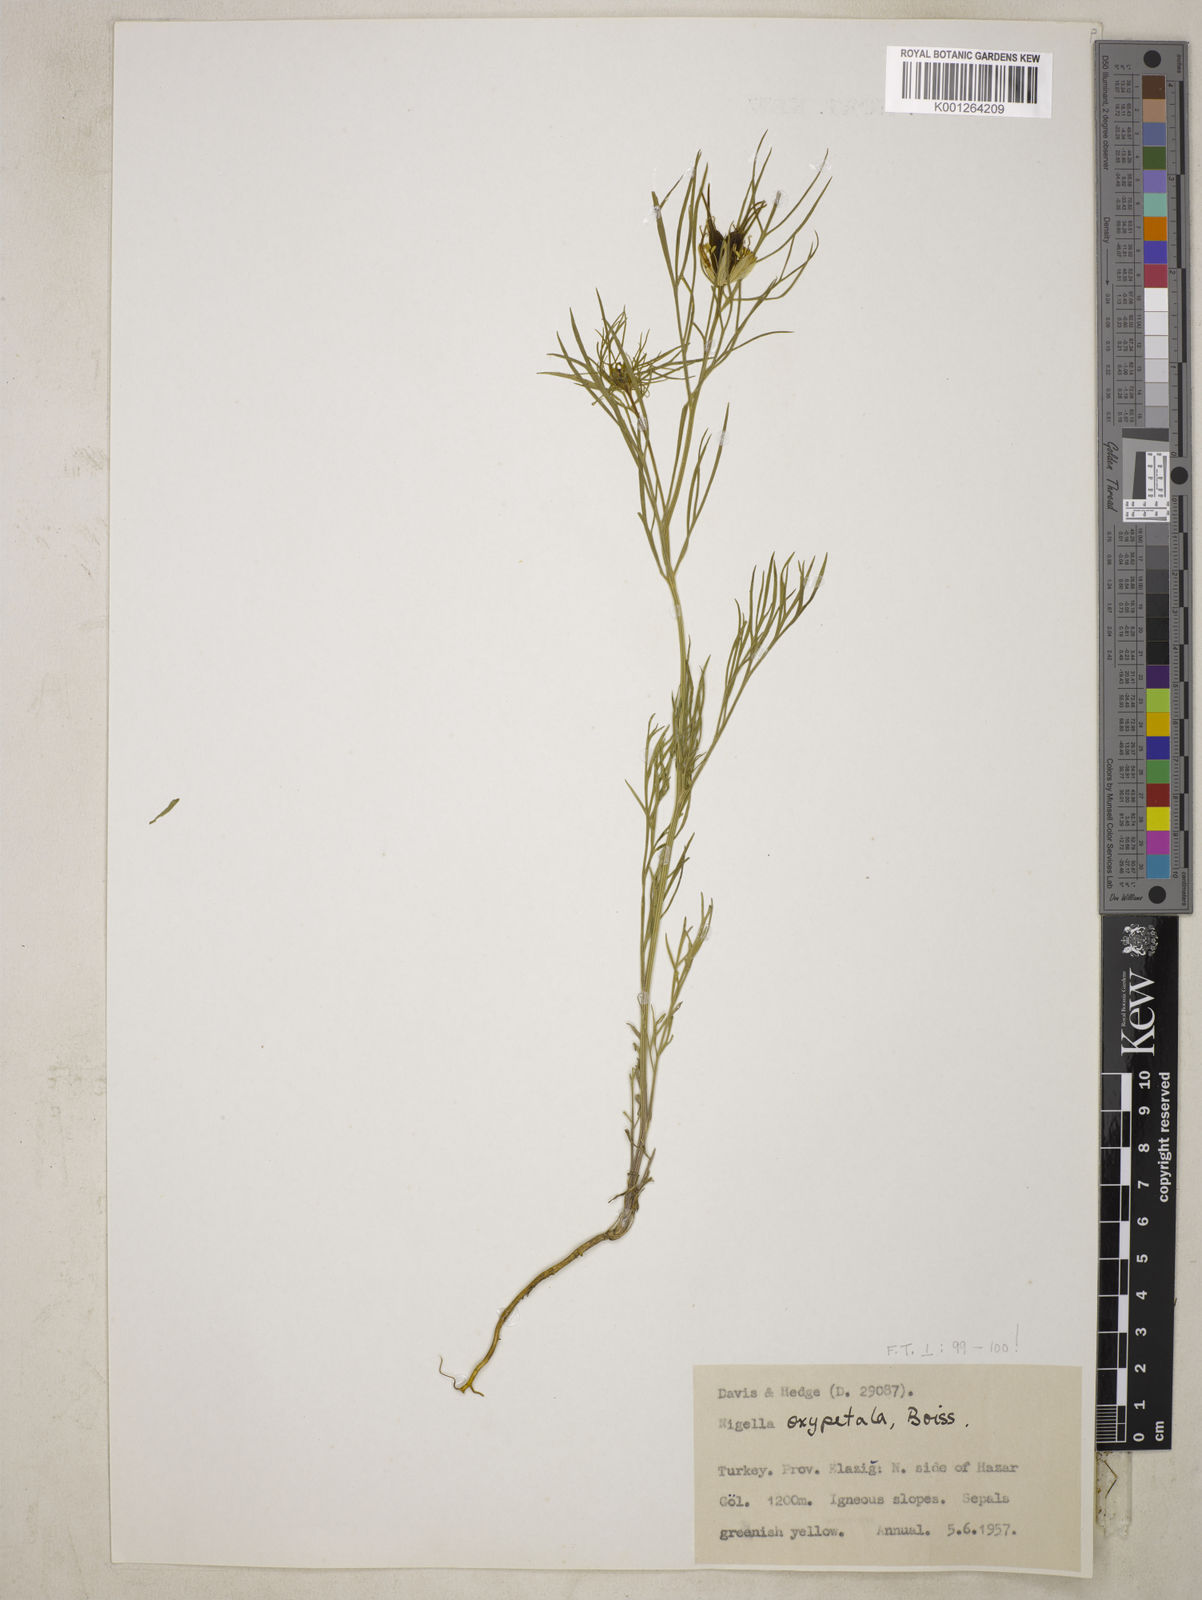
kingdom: Plantae
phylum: Tracheophyta
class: Magnoliopsida
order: Ranunculales
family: Ranunculaceae
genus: Nigella
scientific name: Nigella oxypetala
